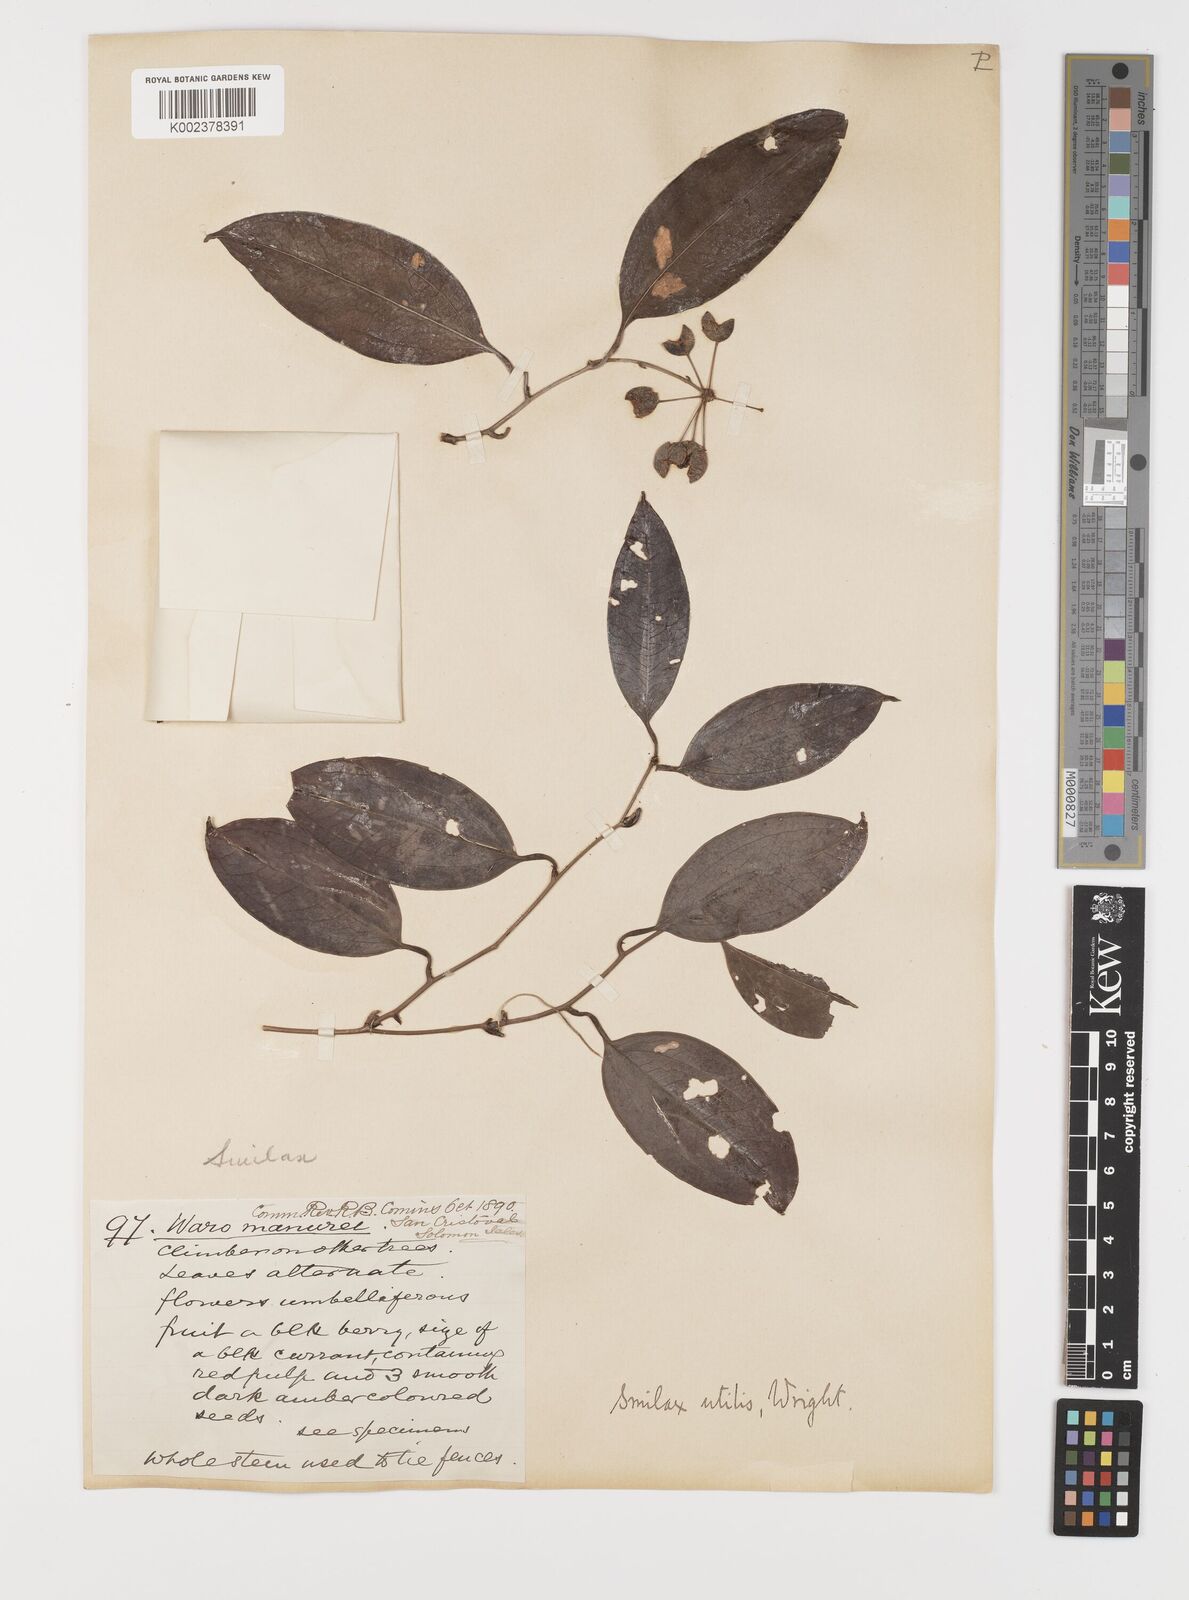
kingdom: Plantae
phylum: Tracheophyta
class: Liliopsida
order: Liliales
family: Smilacaceae
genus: Smilax
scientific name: Smilax ornata
